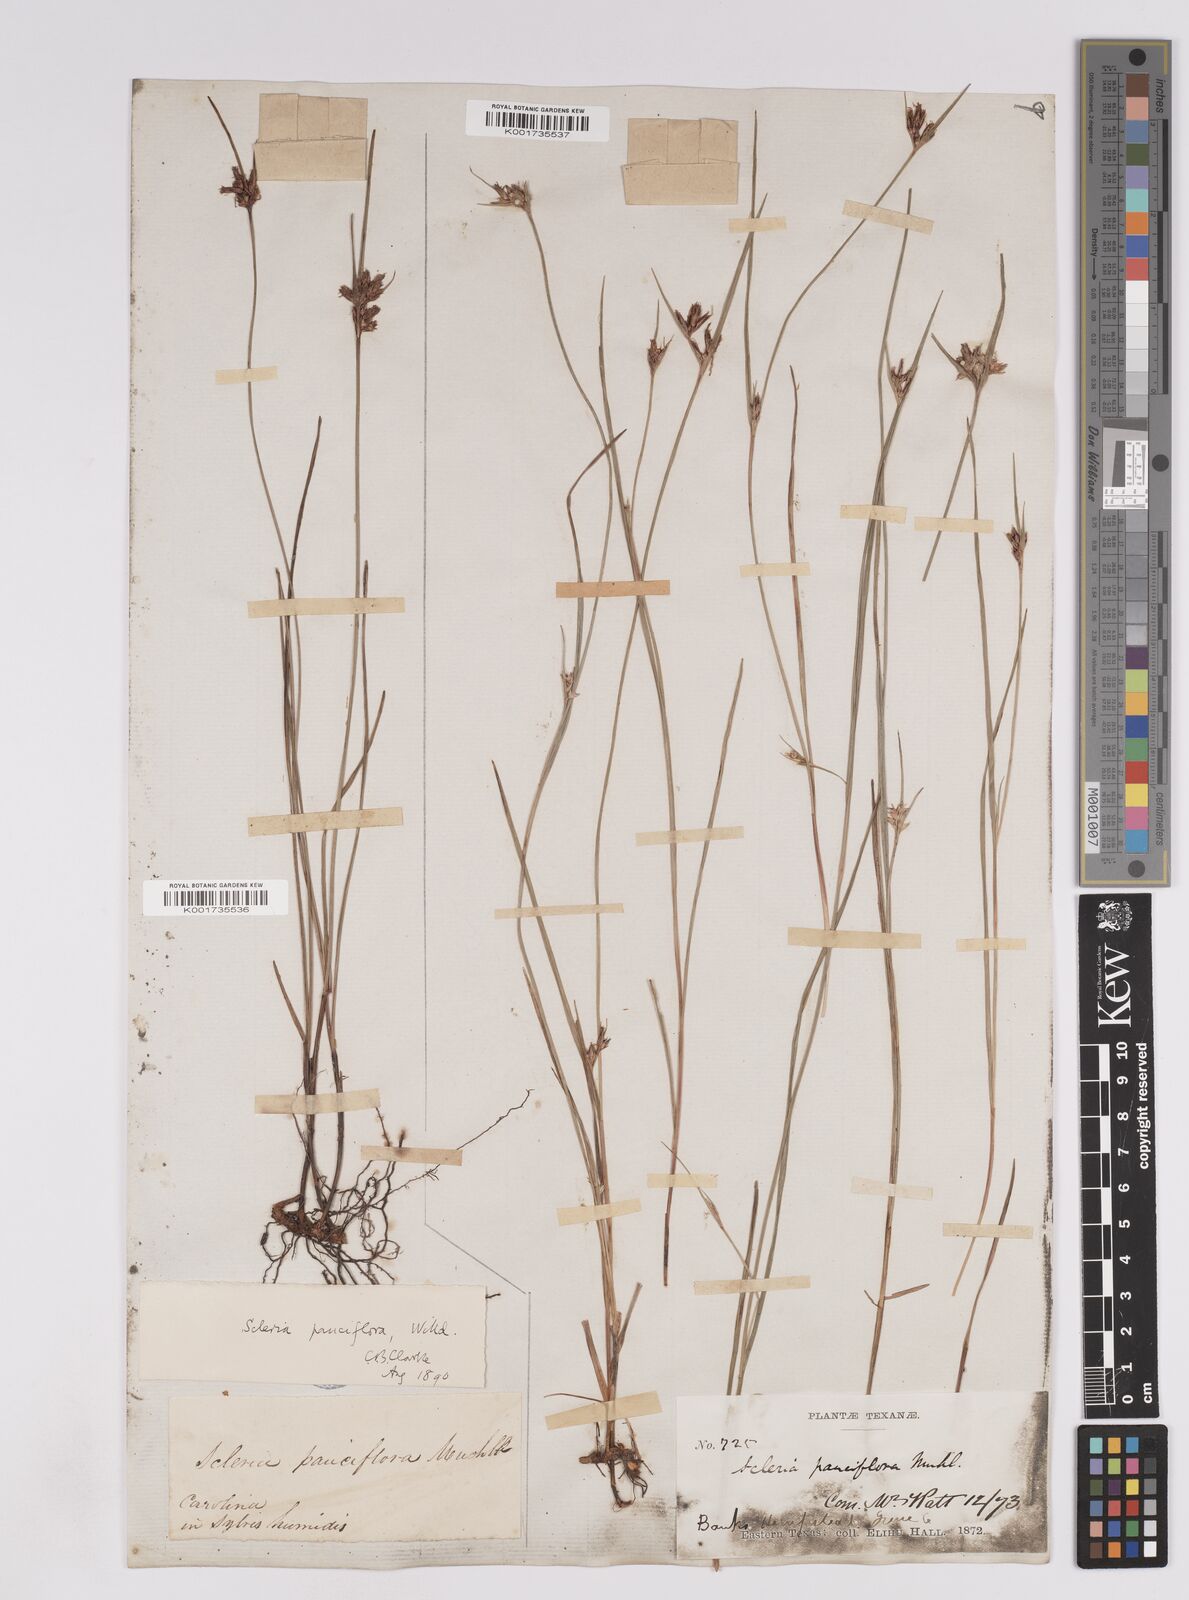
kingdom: Plantae
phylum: Tracheophyta
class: Liliopsida
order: Poales
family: Cyperaceae
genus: Scleria
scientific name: Scleria pauciflora
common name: Few-flowered nutrush
